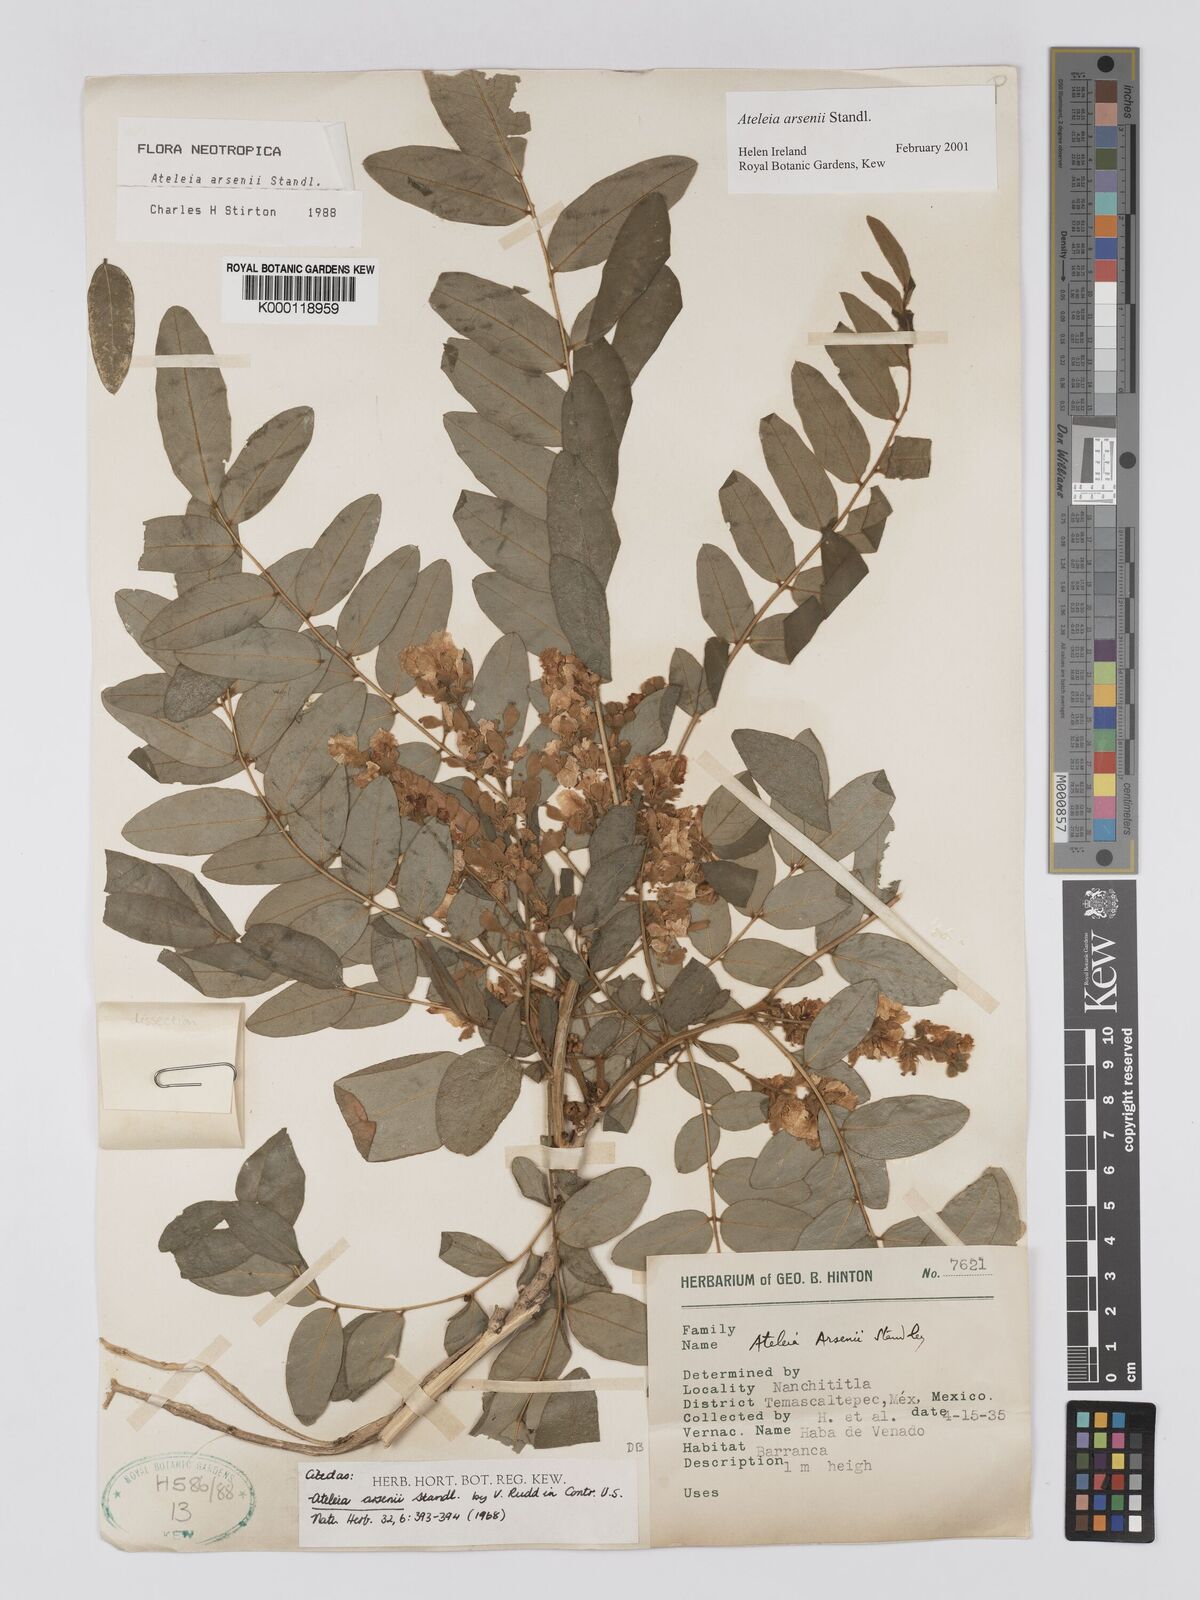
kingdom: Plantae
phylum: Tracheophyta
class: Magnoliopsida
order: Fabales
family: Fabaceae
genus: Ateleia
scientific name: Ateleia arsenii
